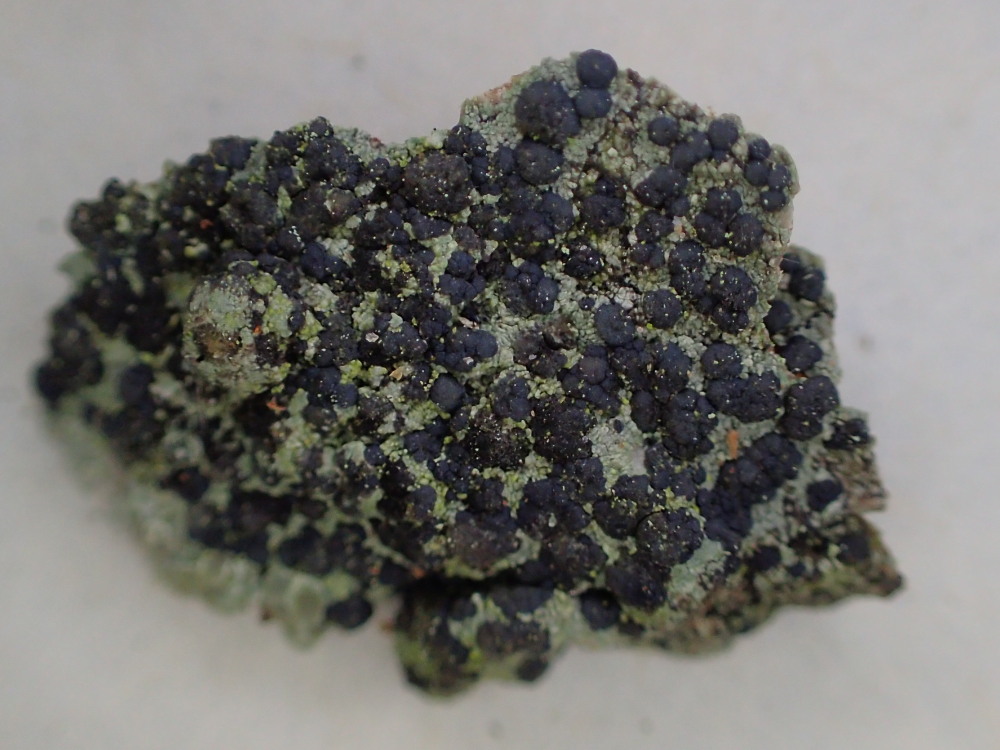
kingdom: Fungi
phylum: Ascomycota
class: Lecanoromycetes
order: Lecanorales
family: Lecanoraceae
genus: Lecidella
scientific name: Lecidella elaeochroma
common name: grågrøn skivelav
